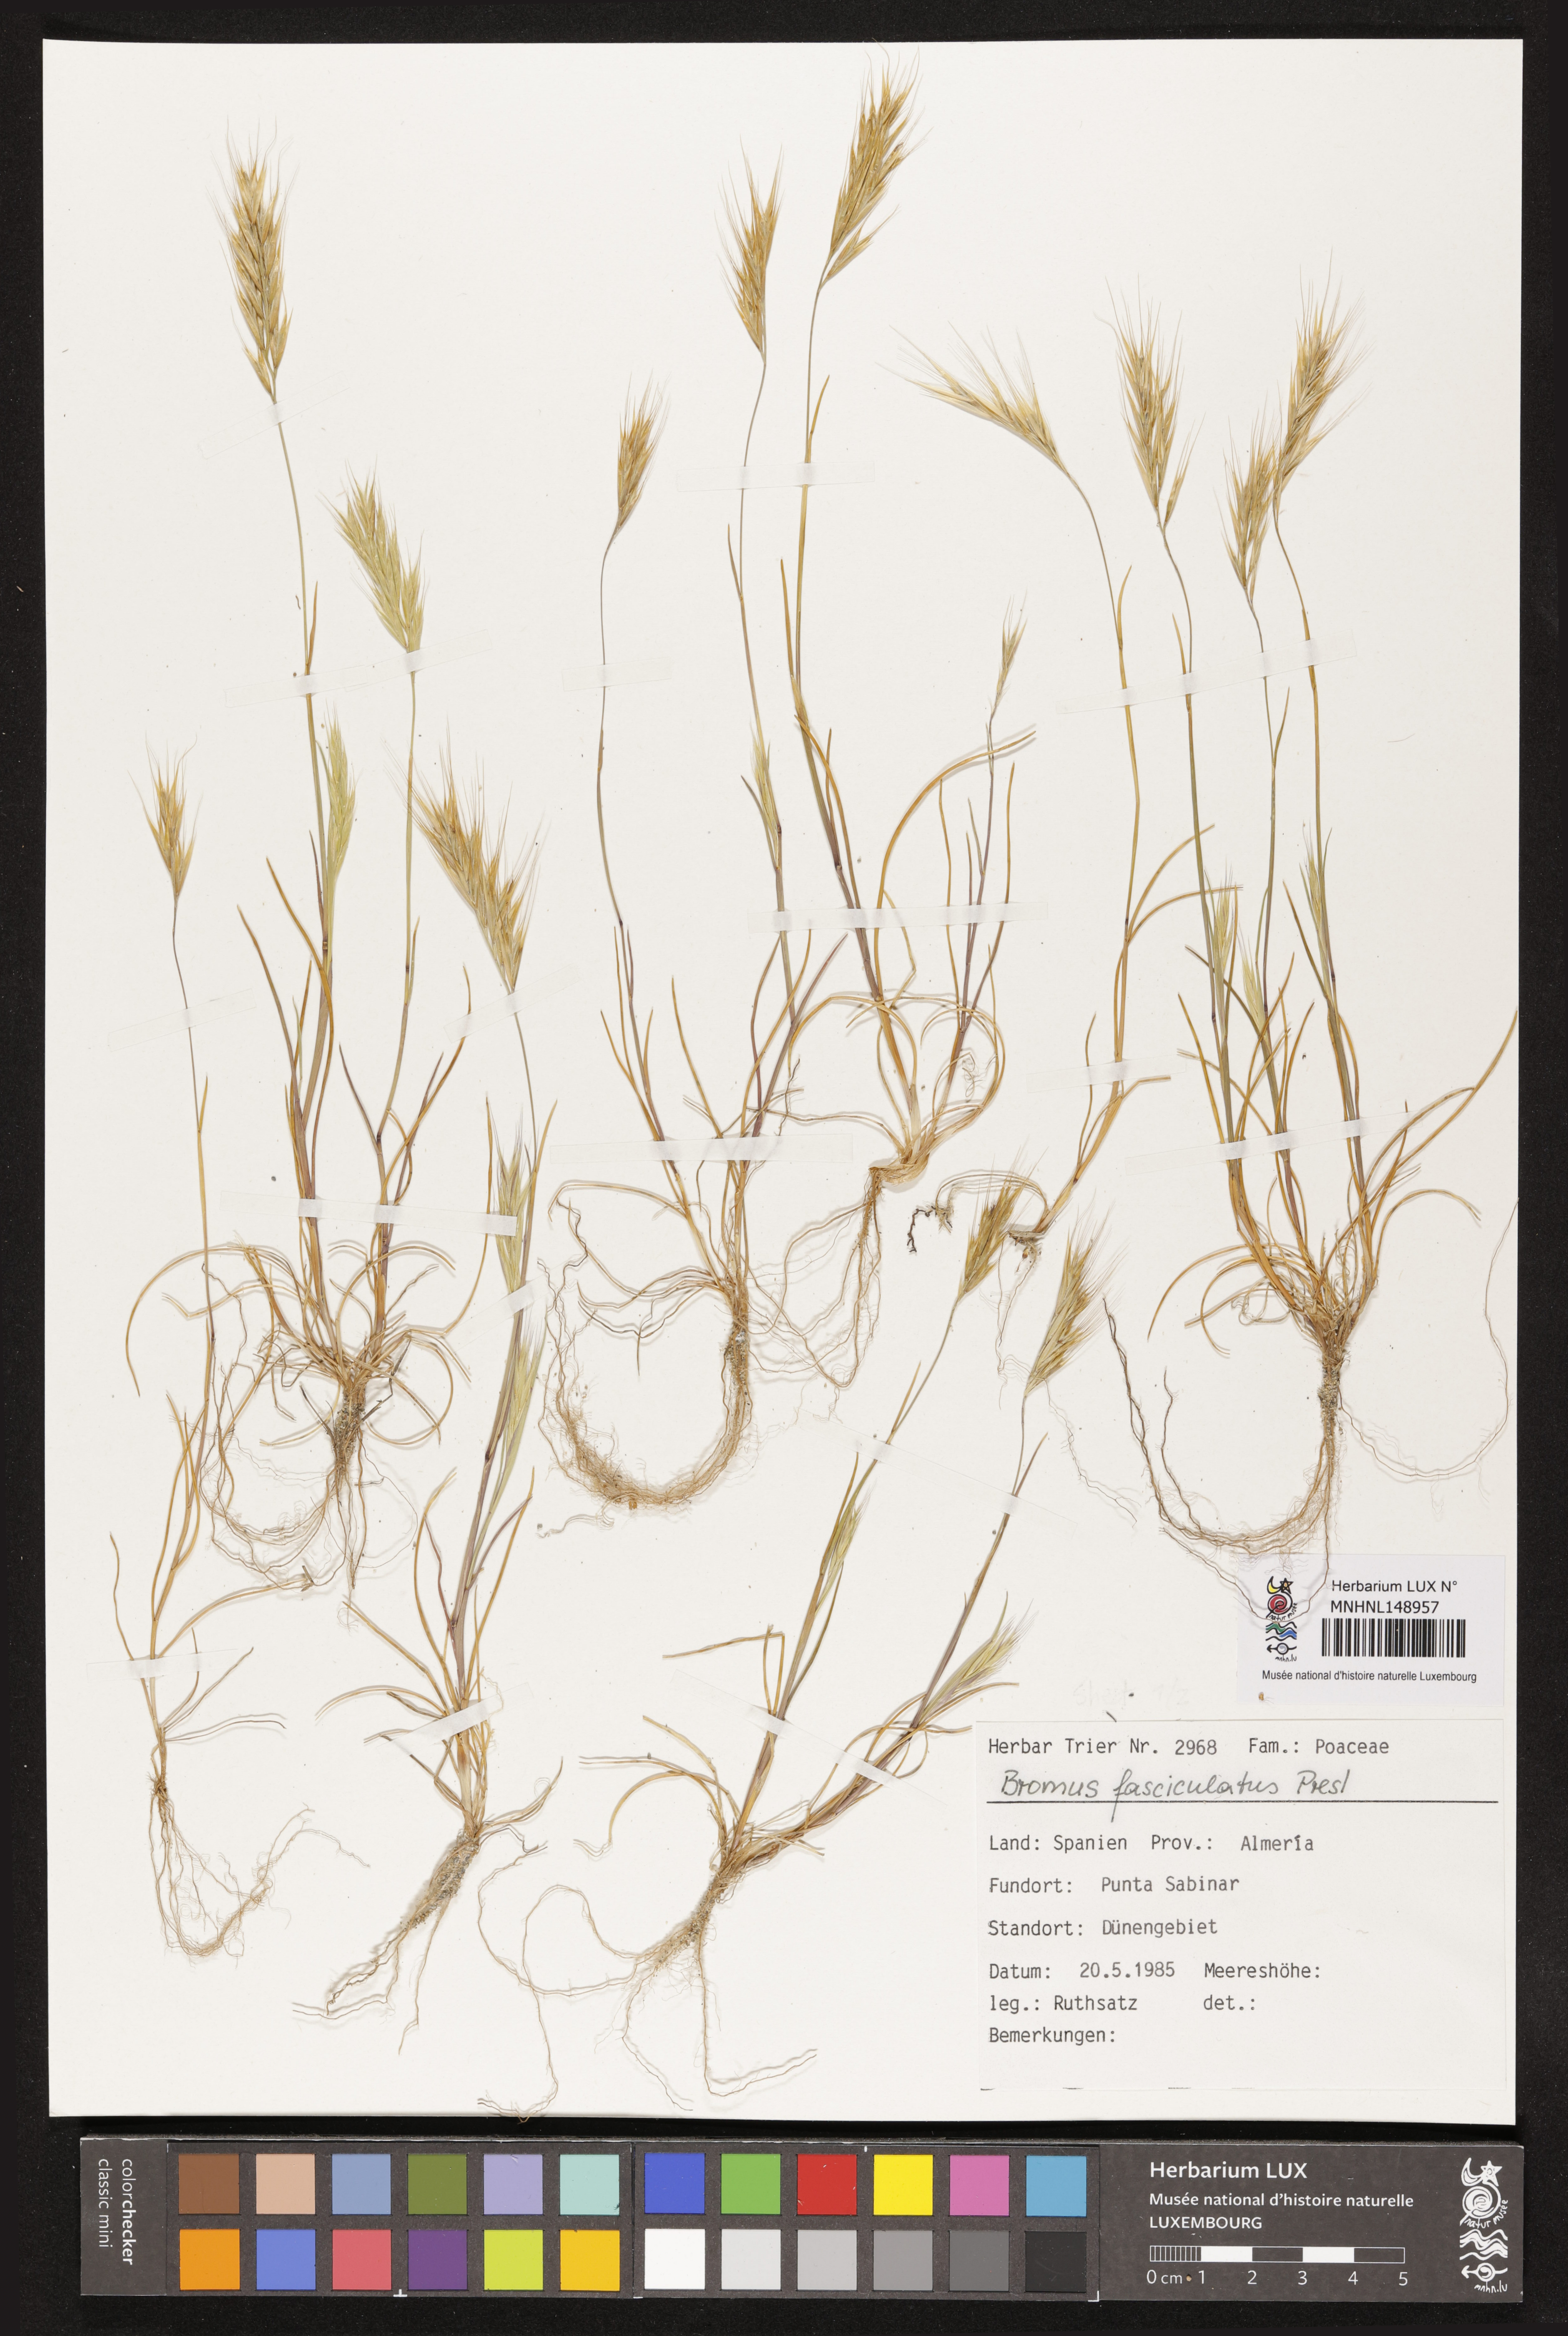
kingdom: Plantae
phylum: Tracheophyta
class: Liliopsida
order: Poales
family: Poaceae
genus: Bromus
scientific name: Bromus fasciculatus
